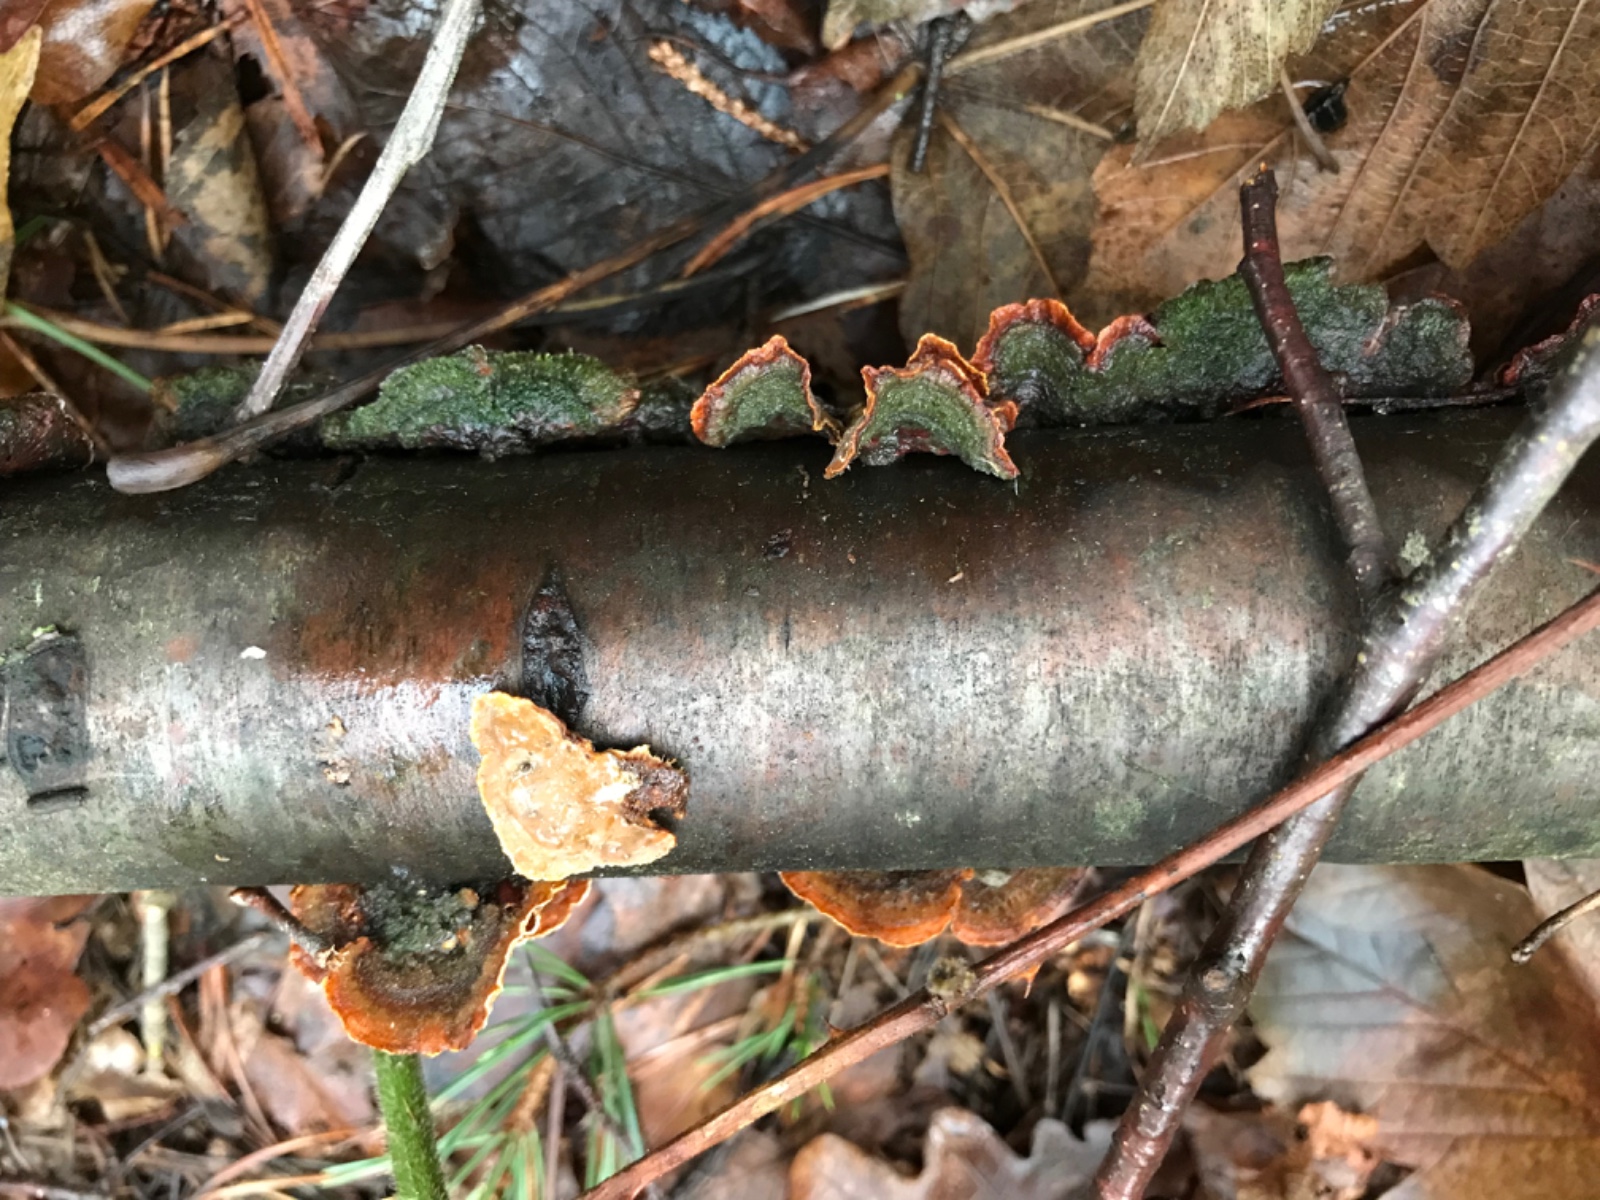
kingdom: Fungi
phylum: Basidiomycota
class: Agaricomycetes
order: Russulales
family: Stereaceae
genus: Stereum
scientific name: Stereum hirsutum
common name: håret lædersvamp
